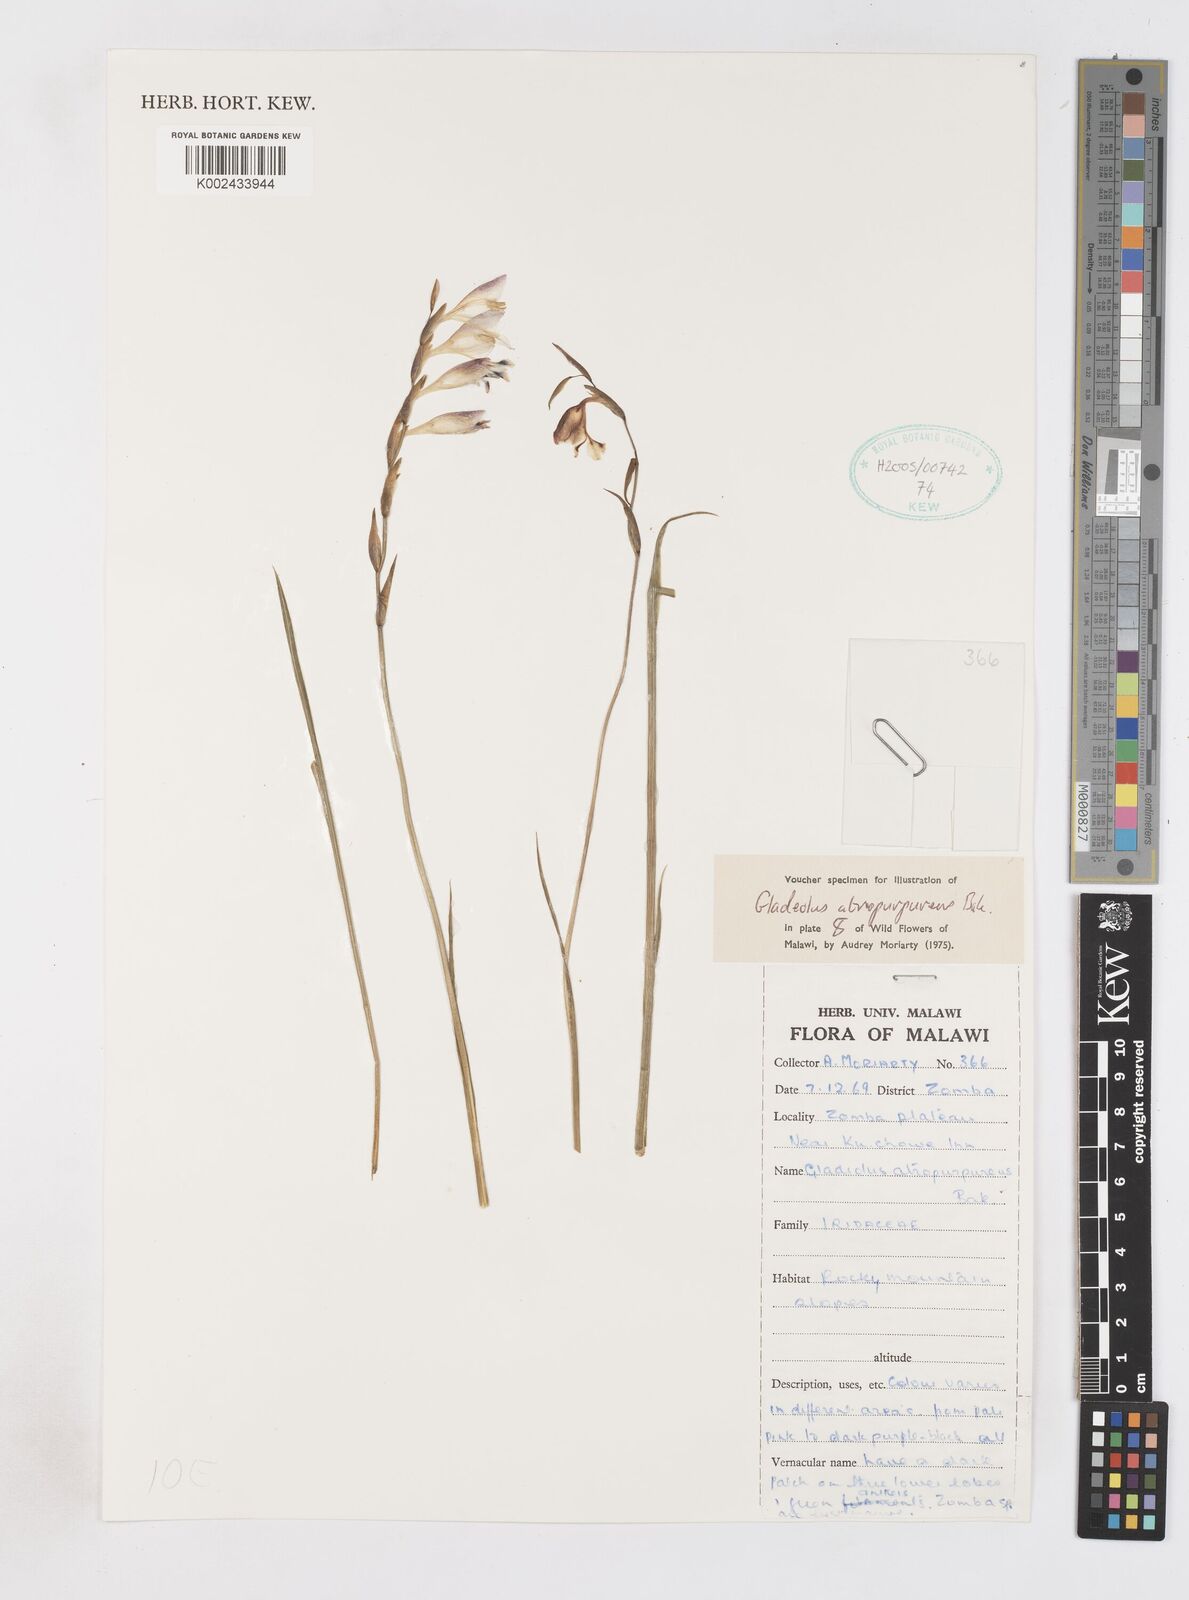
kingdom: Plantae
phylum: Tracheophyta
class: Liliopsida
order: Asparagales
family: Iridaceae
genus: Gladiolus
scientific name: Gladiolus atropurpureus
